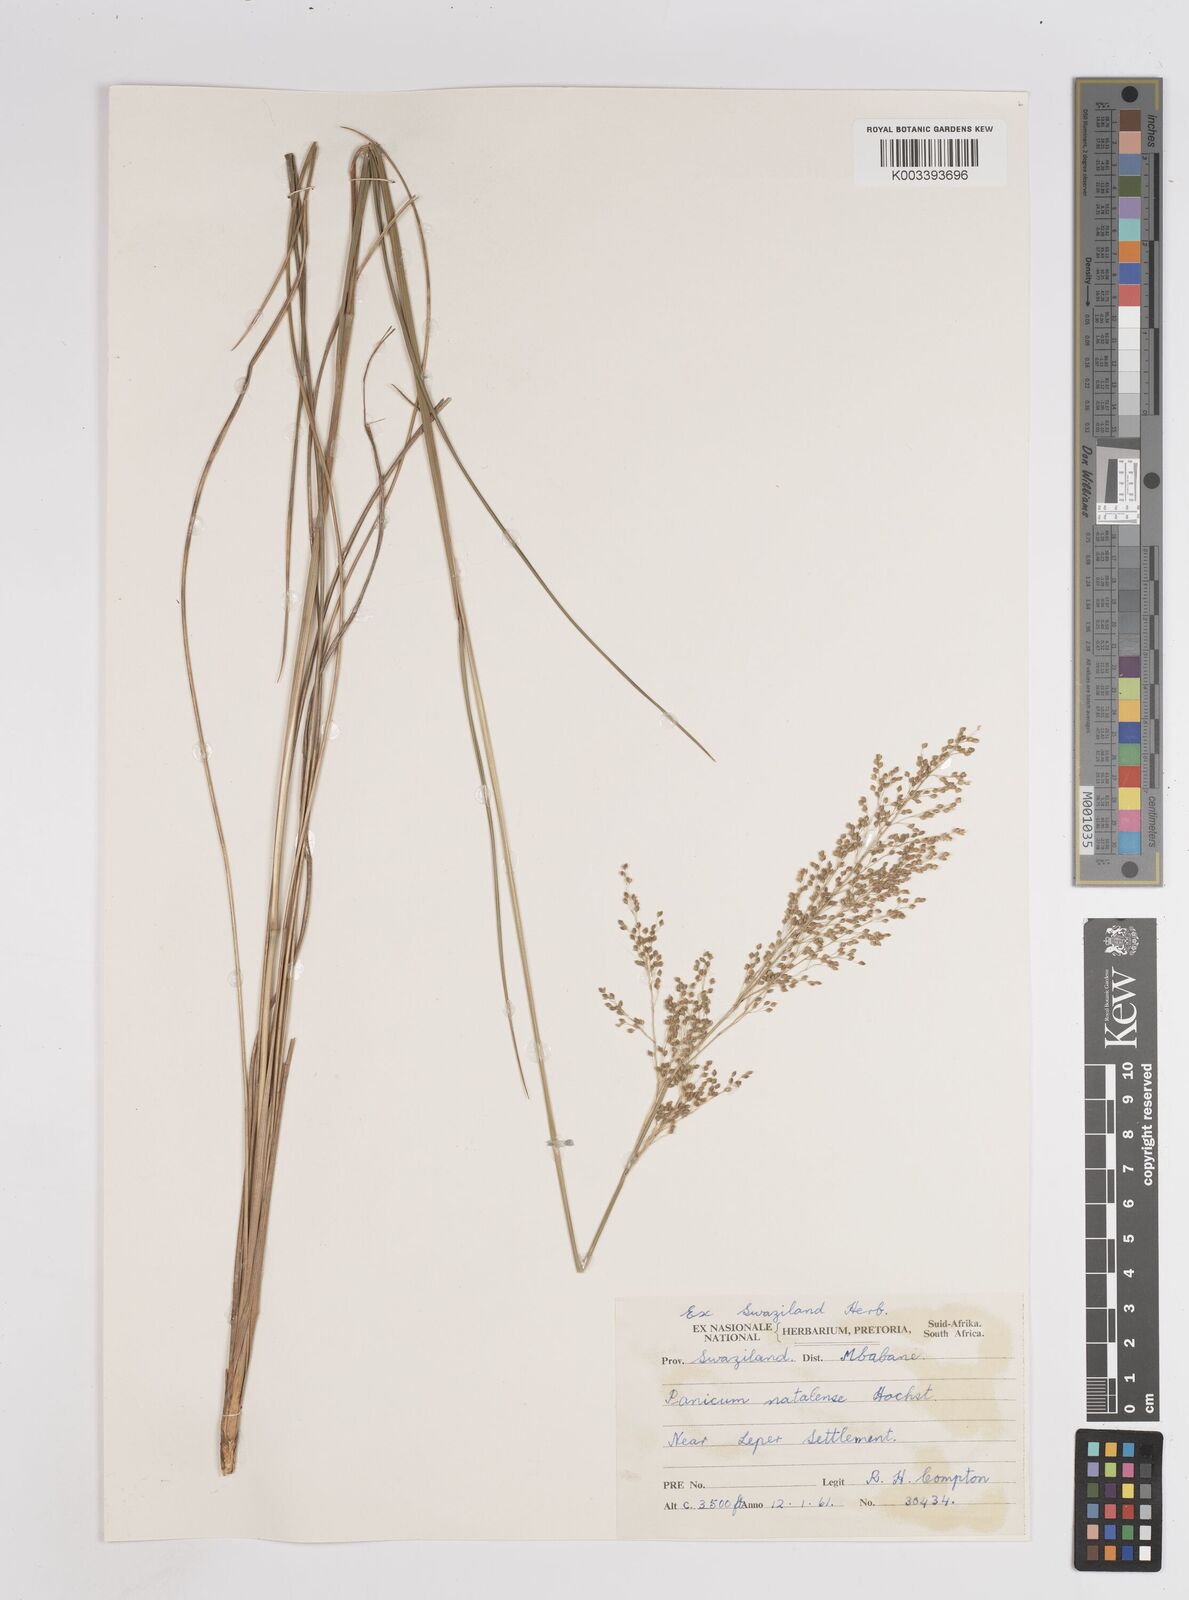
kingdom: Plantae
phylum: Tracheophyta
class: Liliopsida
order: Poales
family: Poaceae
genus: Trichanthecium
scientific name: Trichanthecium natalense
